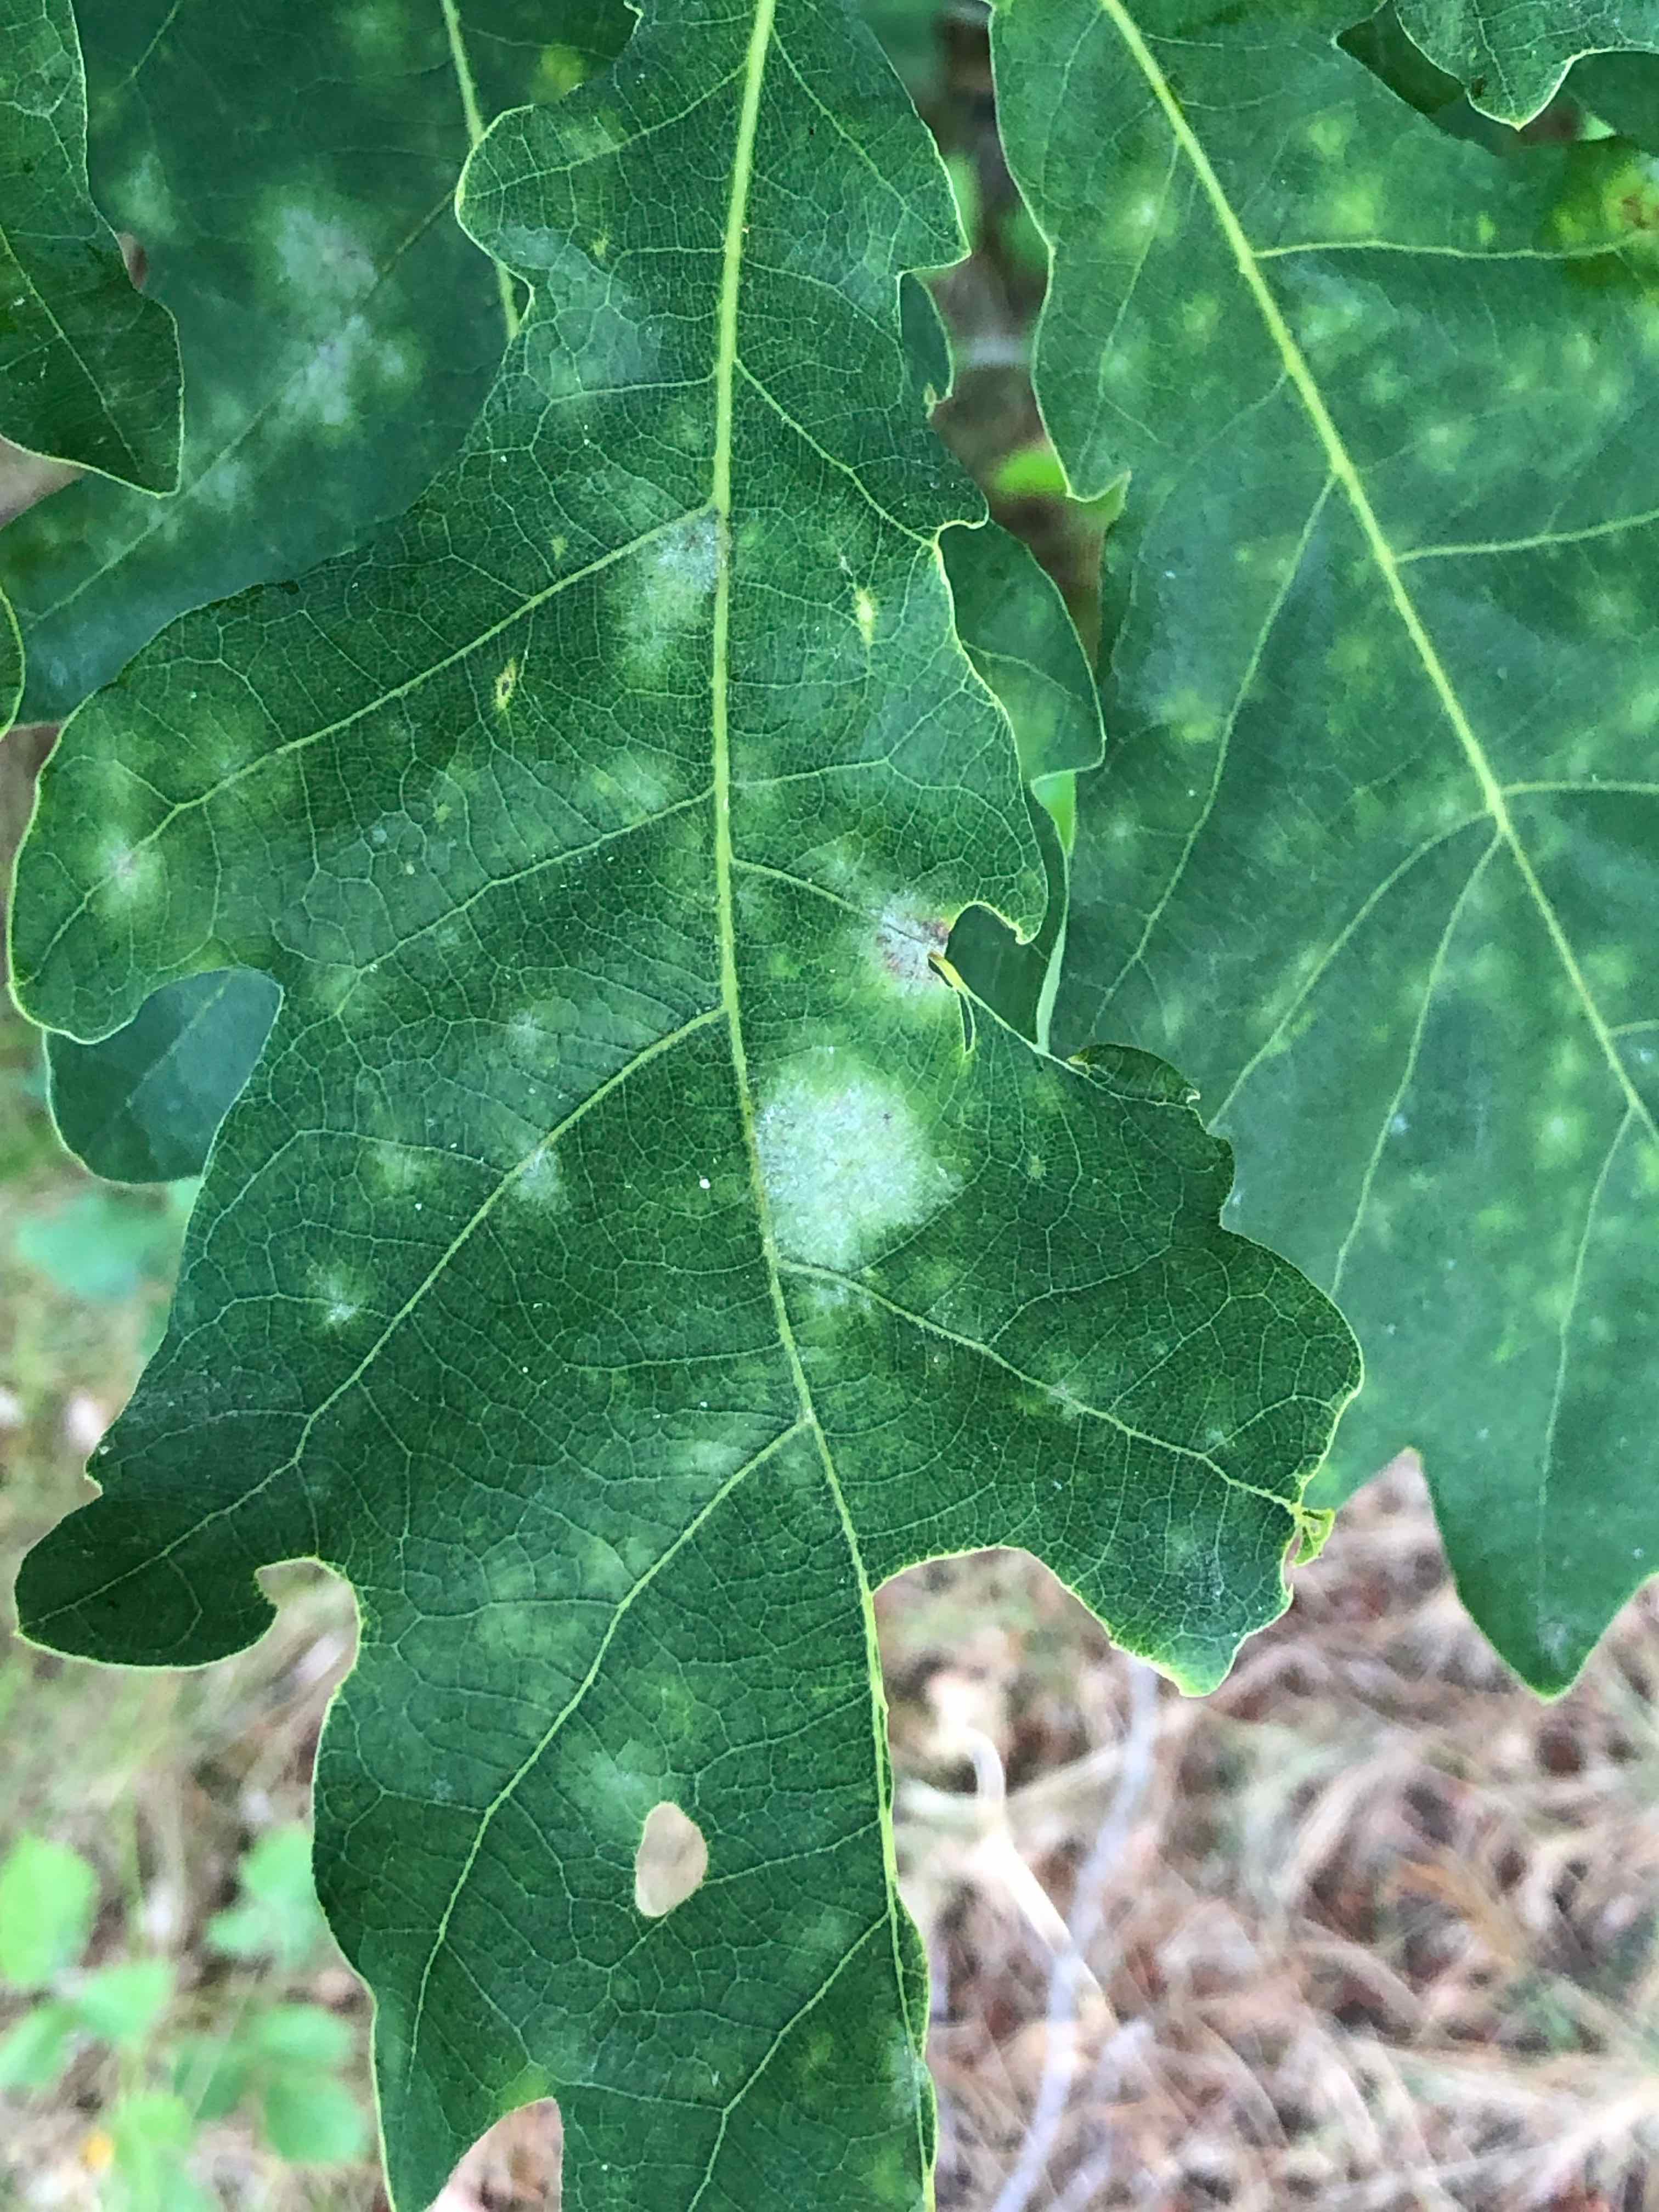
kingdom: Fungi
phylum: Ascomycota
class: Leotiomycetes
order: Helotiales
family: Erysiphaceae
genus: Erysiphe
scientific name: Erysiphe alphitoides
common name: ege-meldug
